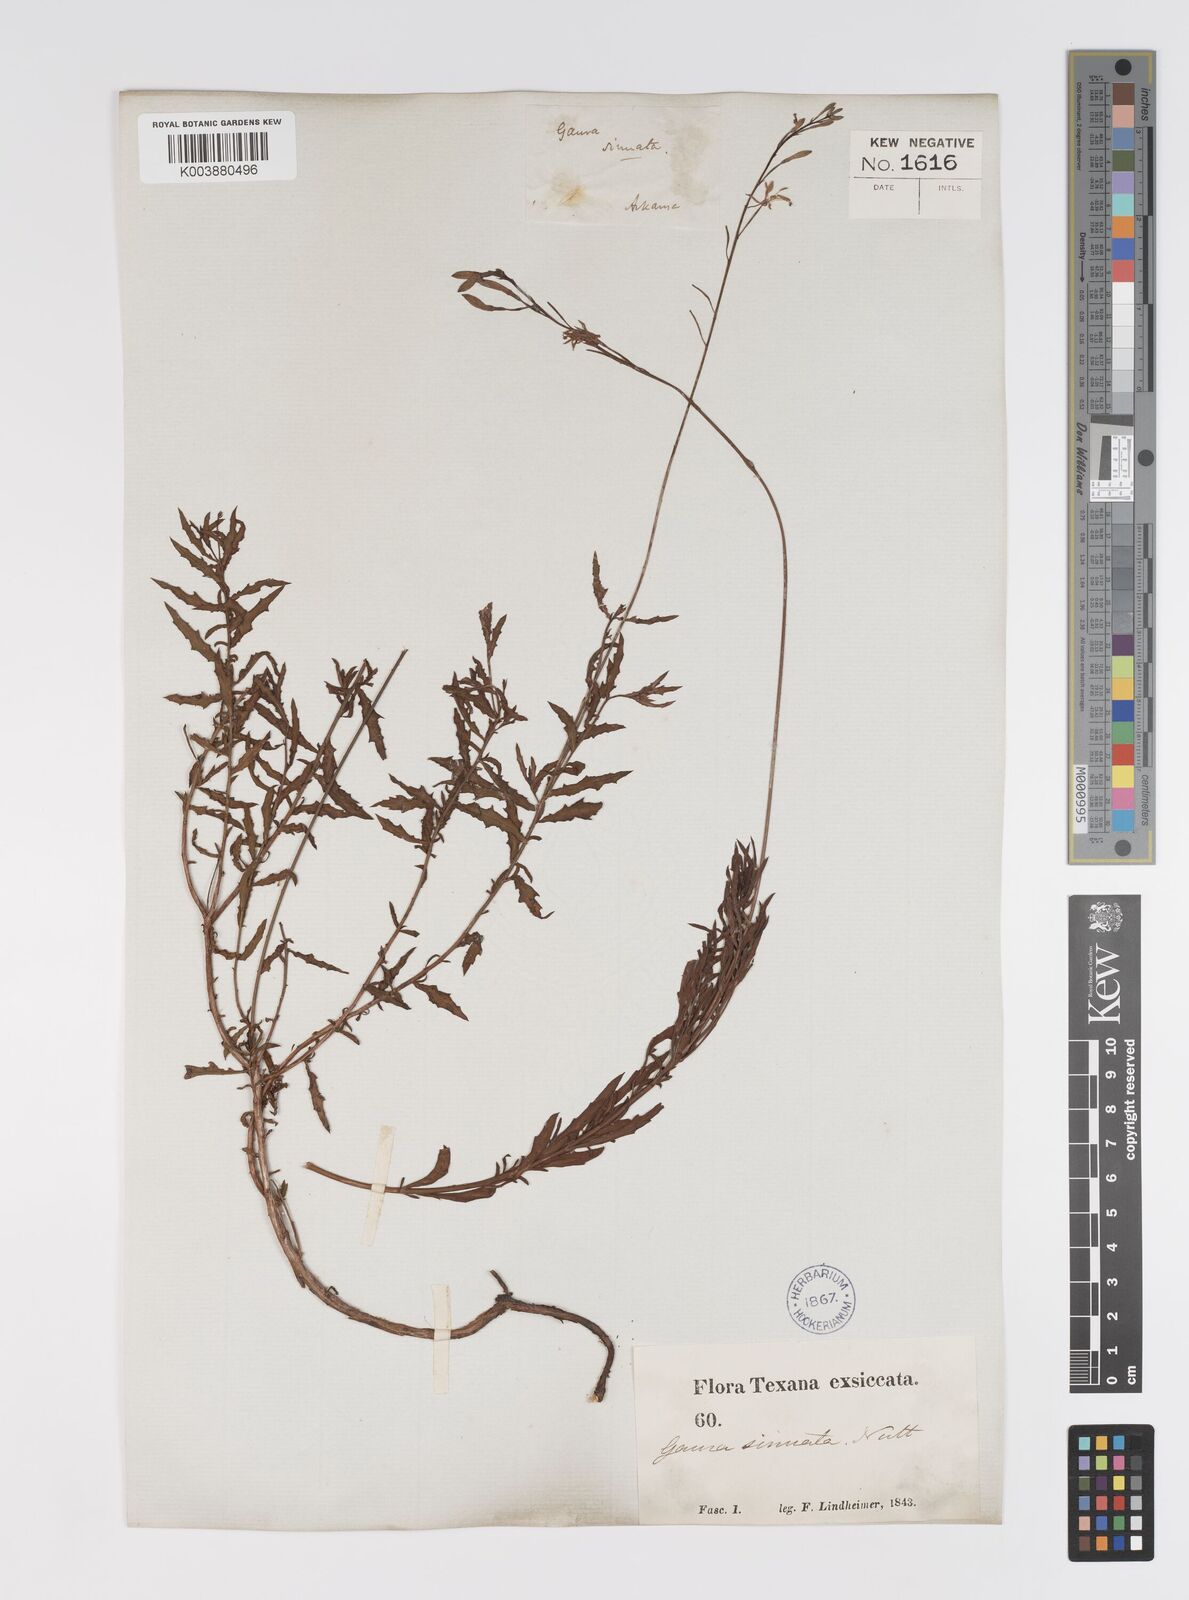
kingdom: Plantae
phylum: Tracheophyta
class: Magnoliopsida
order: Myrtales
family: Onagraceae
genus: Oenothera
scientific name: Oenothera sinuosa
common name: Wavyleaf beeblossom
